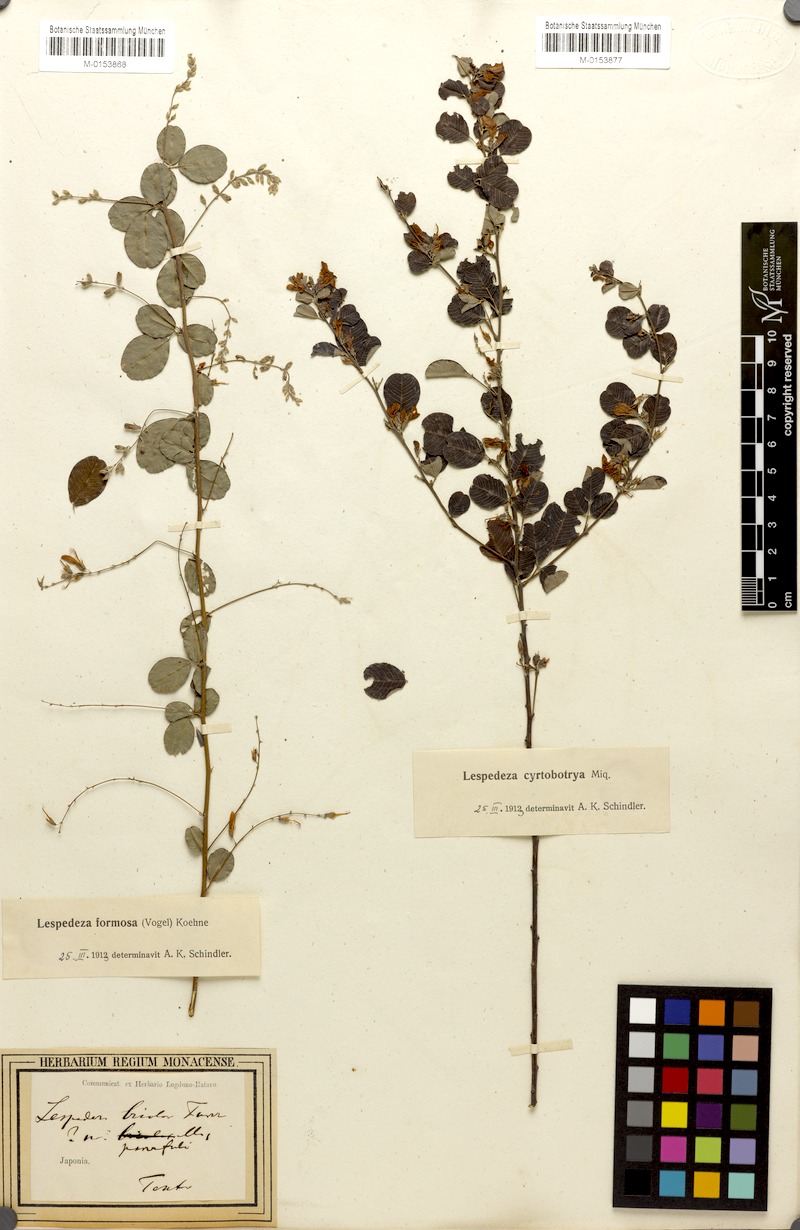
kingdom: Plantae
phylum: Tracheophyta
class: Magnoliopsida
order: Fabales
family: Fabaceae
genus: Lespedeza
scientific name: Lespedeza cyrtobotrya
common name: Leafy lespedeza
